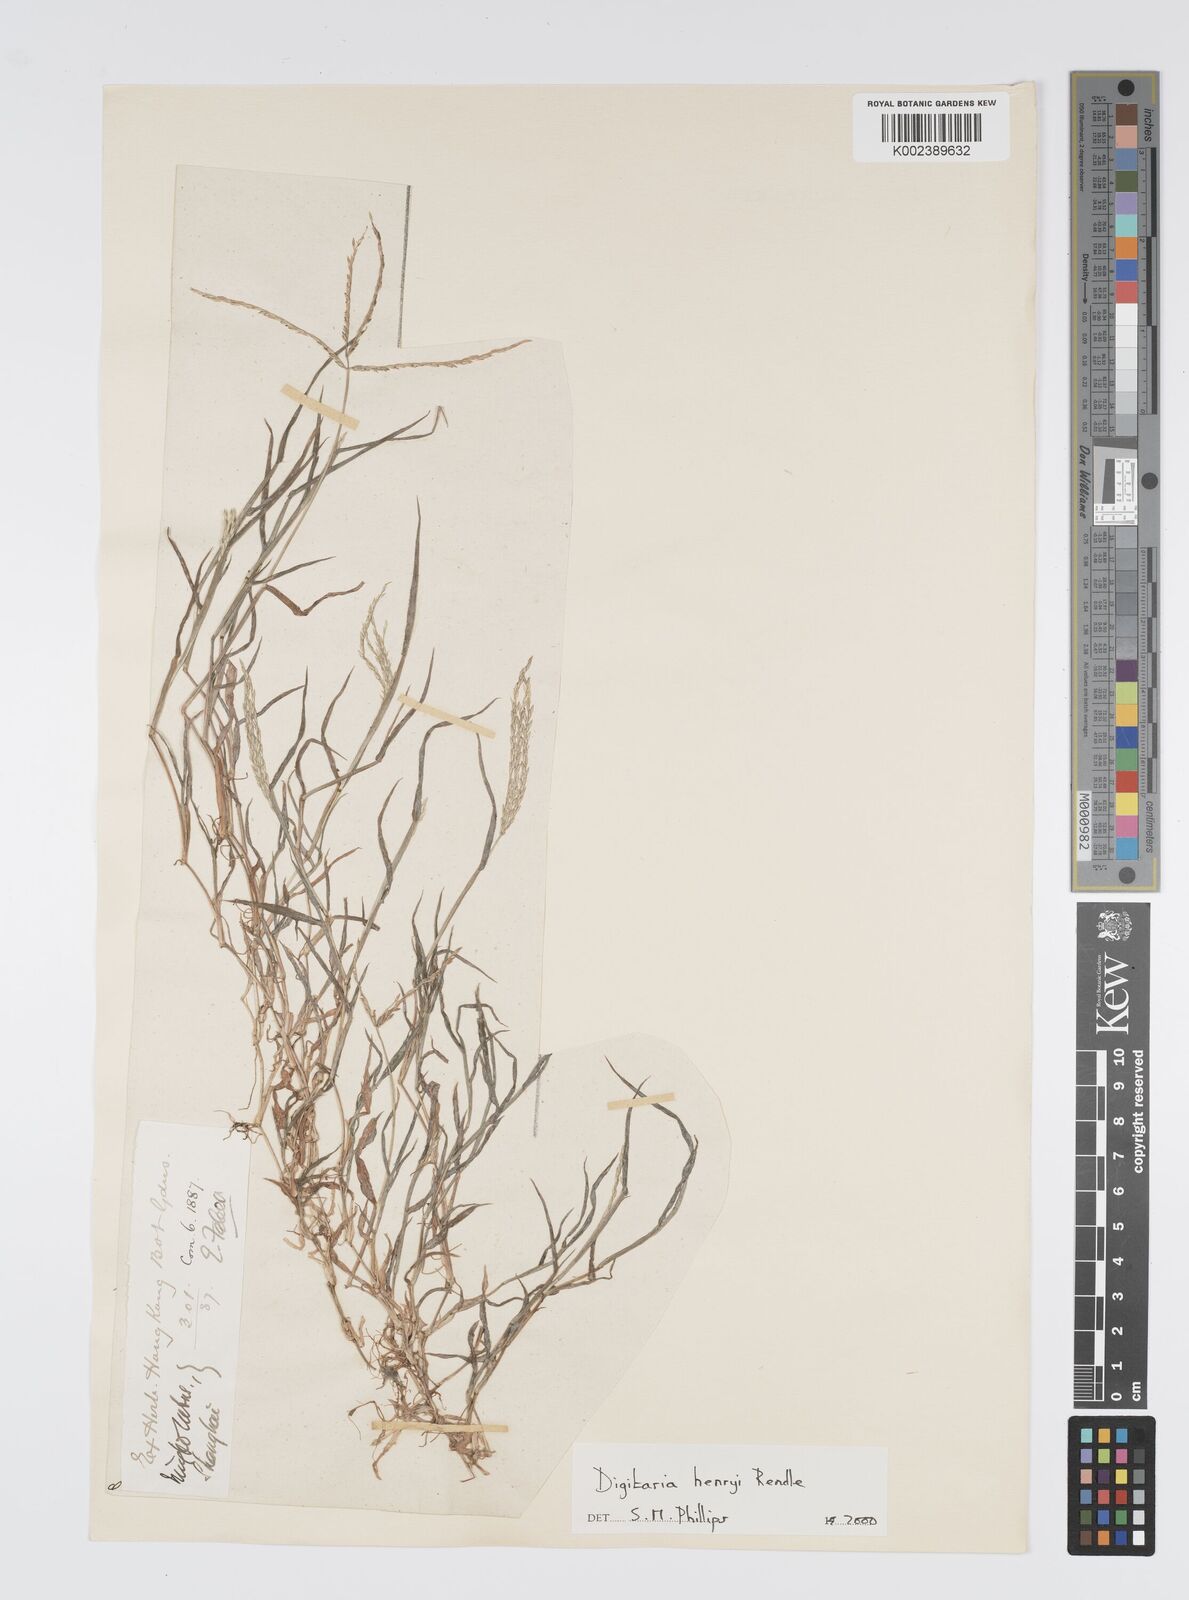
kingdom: Plantae
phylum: Tracheophyta
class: Liliopsida
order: Poales
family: Poaceae
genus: Digitaria
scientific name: Digitaria ciliaris
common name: Tropical finger-grass
